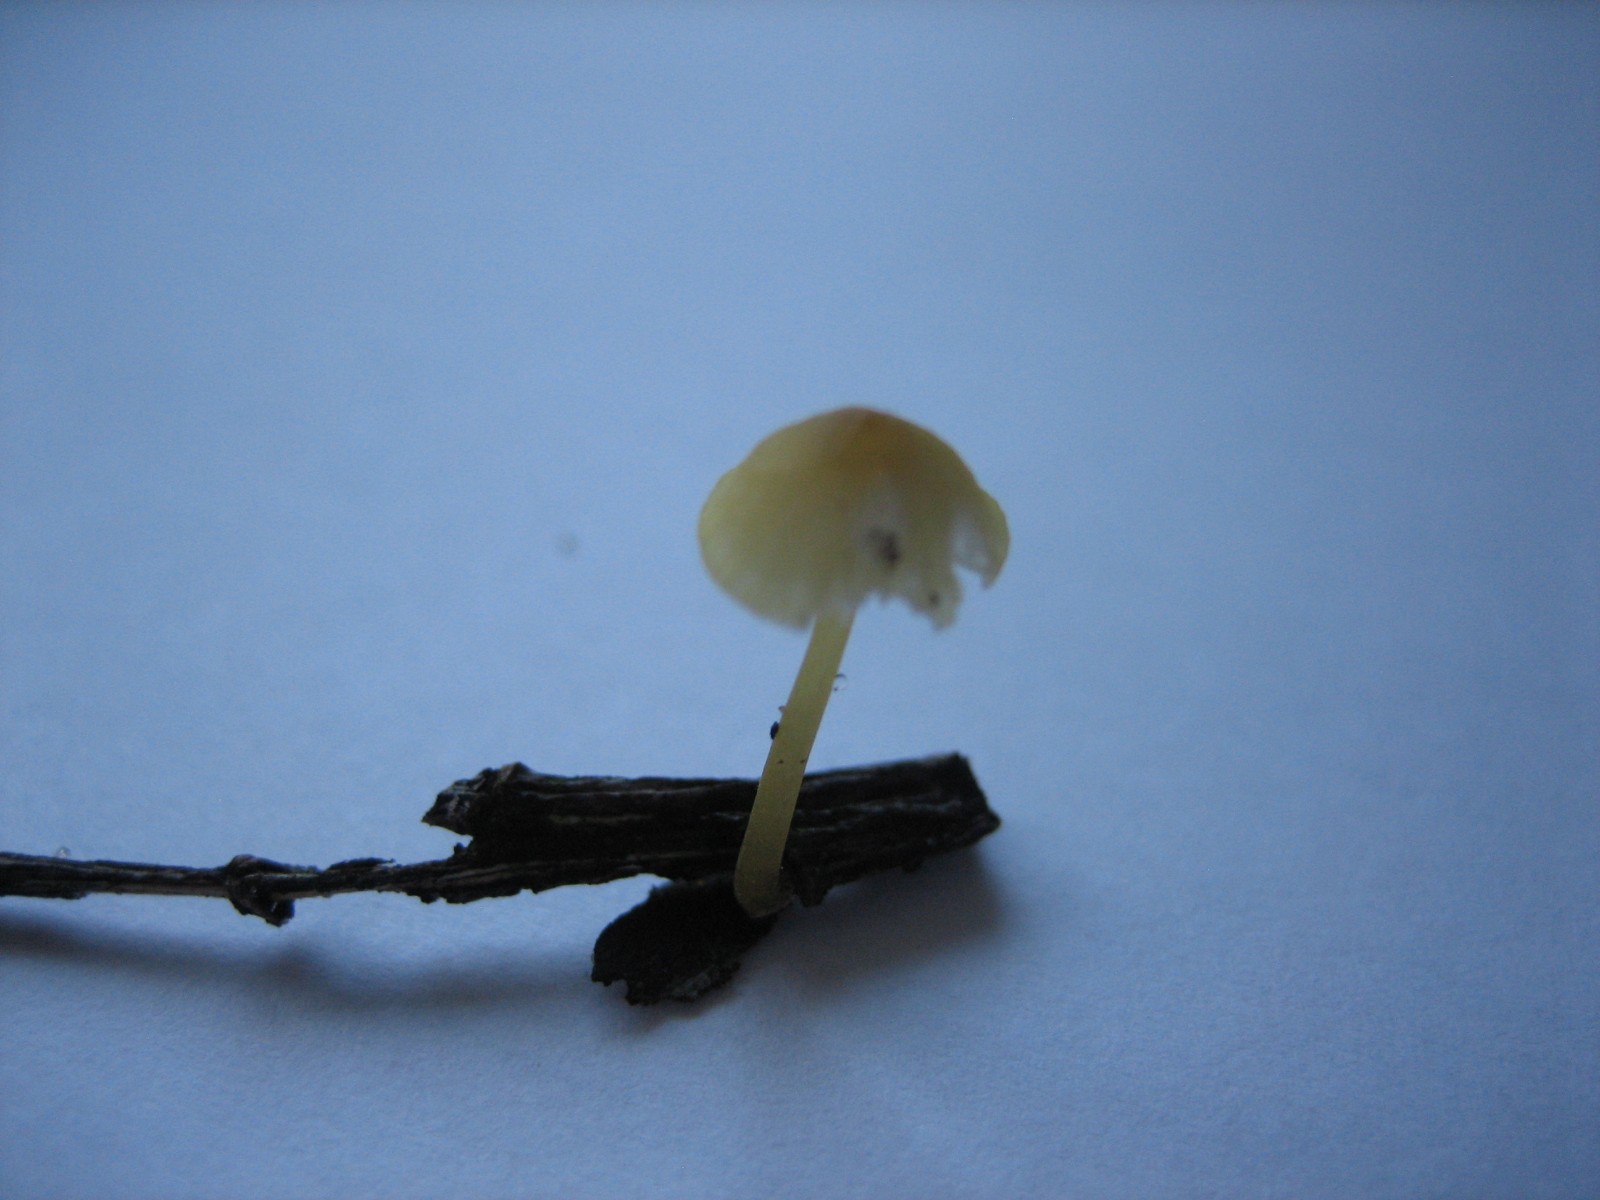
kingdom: Fungi
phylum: Basidiomycota
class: Agaricomycetes
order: Agaricales
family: Mycenaceae
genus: Mycena
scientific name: Mycena
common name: huesvamp
